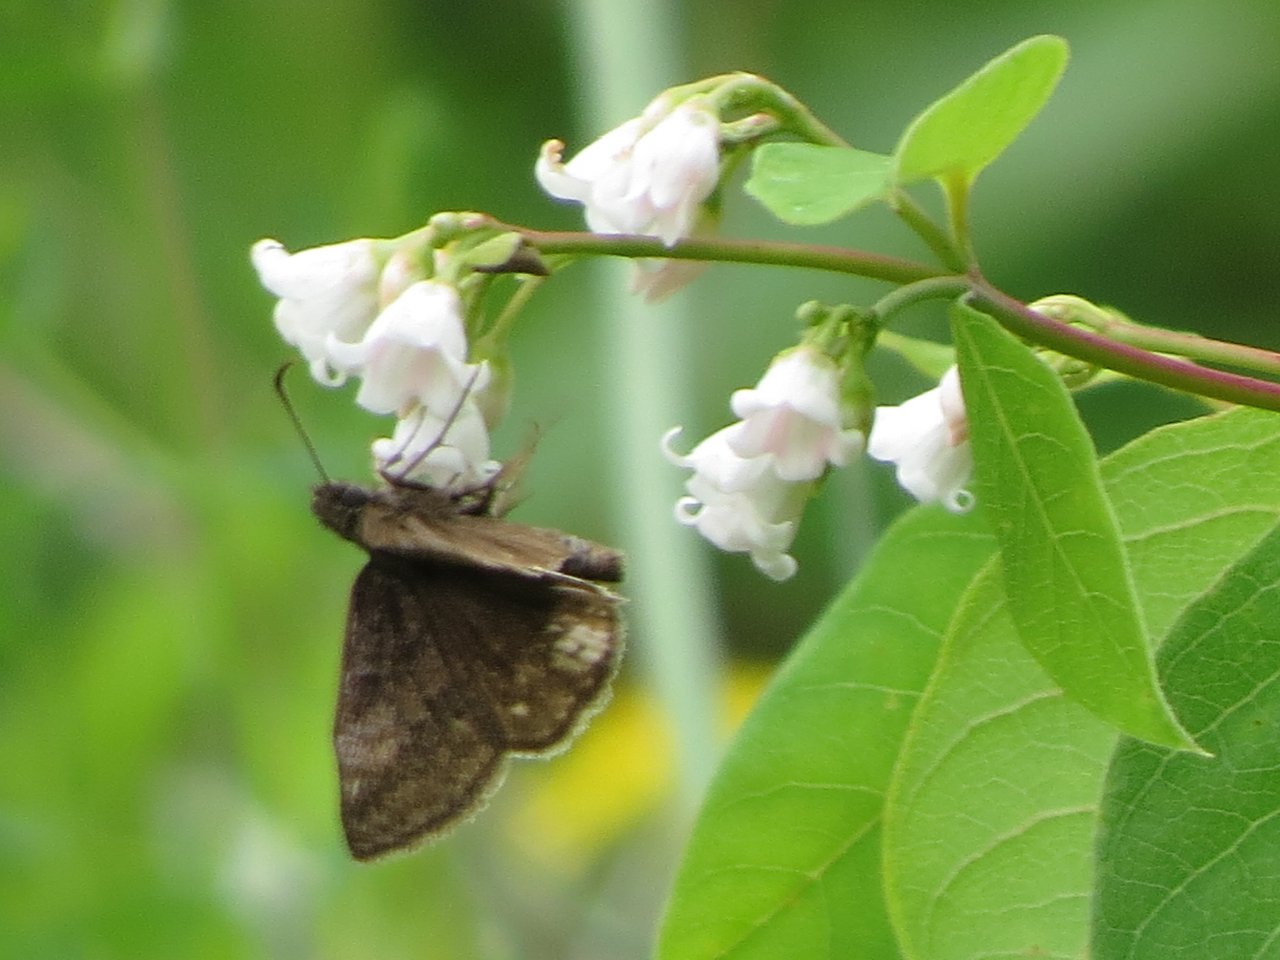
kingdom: Animalia
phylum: Arthropoda
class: Insecta
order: Lepidoptera
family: Hesperiidae
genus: Erynnis
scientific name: Erynnis
